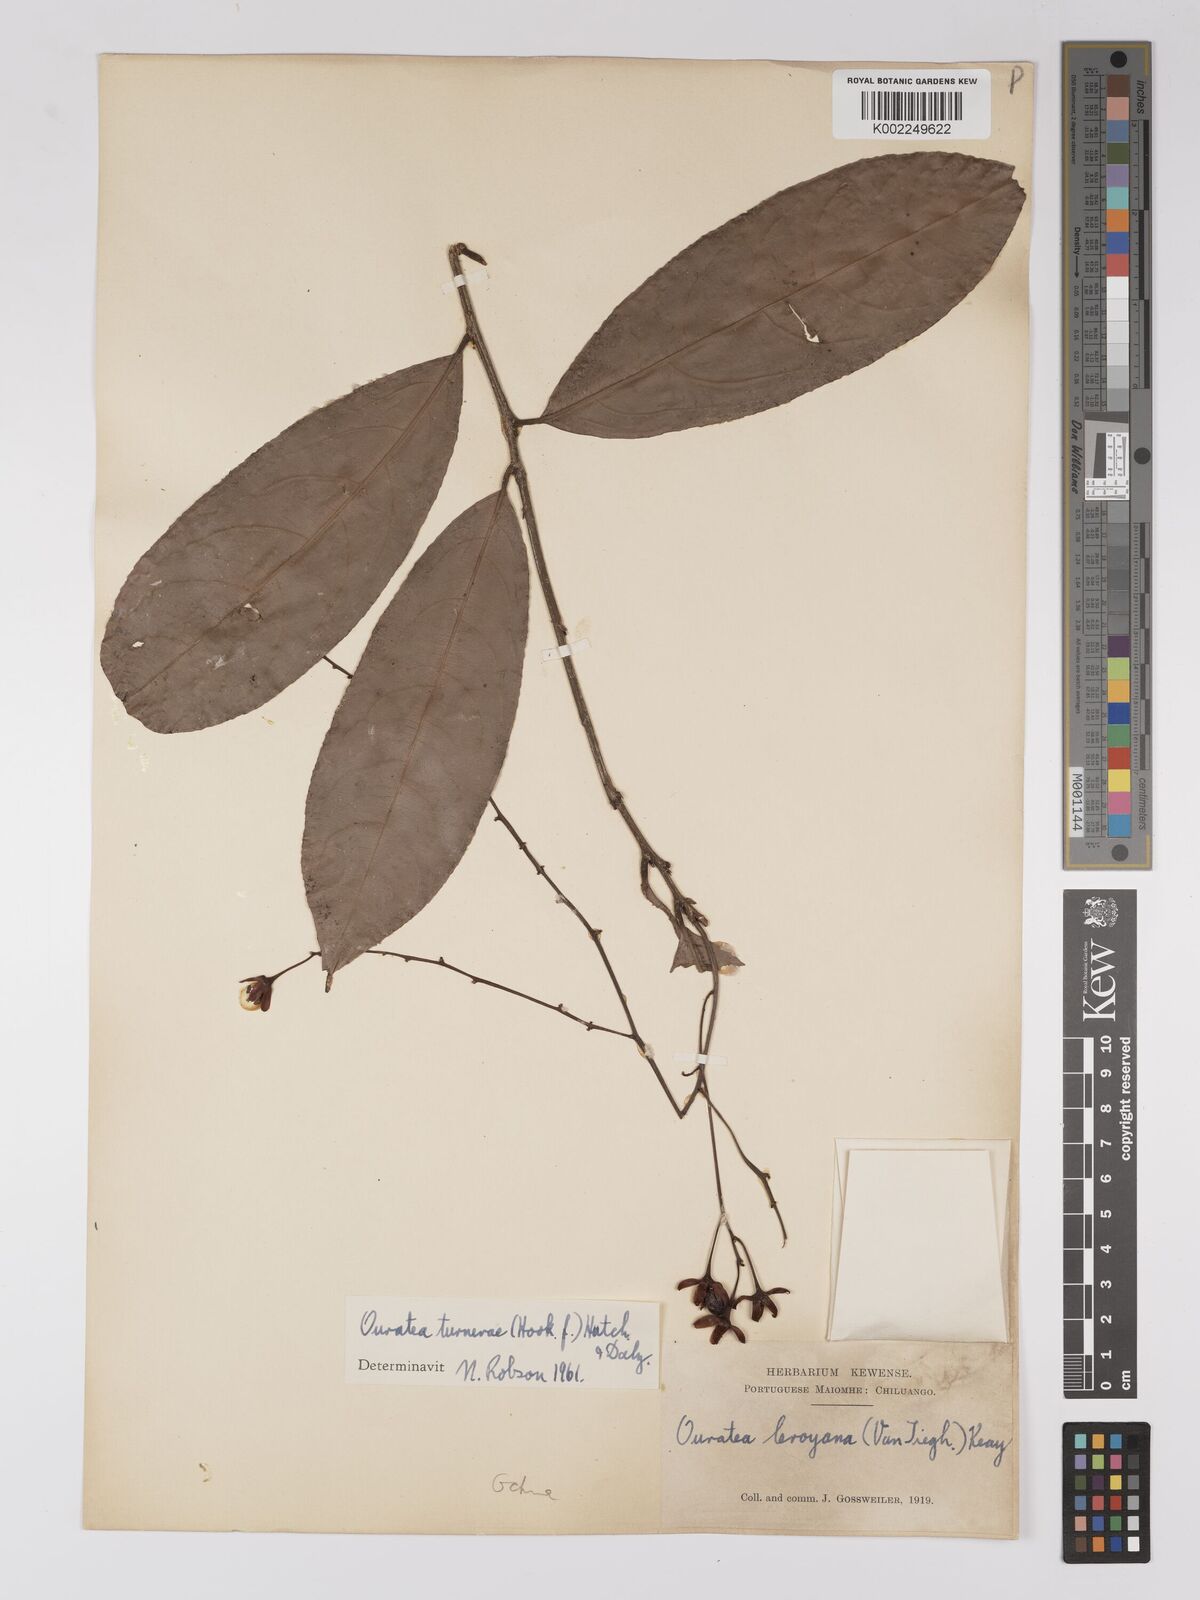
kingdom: Plantae
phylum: Tracheophyta
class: Magnoliopsida
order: Malpighiales
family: Ochnaceae
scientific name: Ochnaceae
